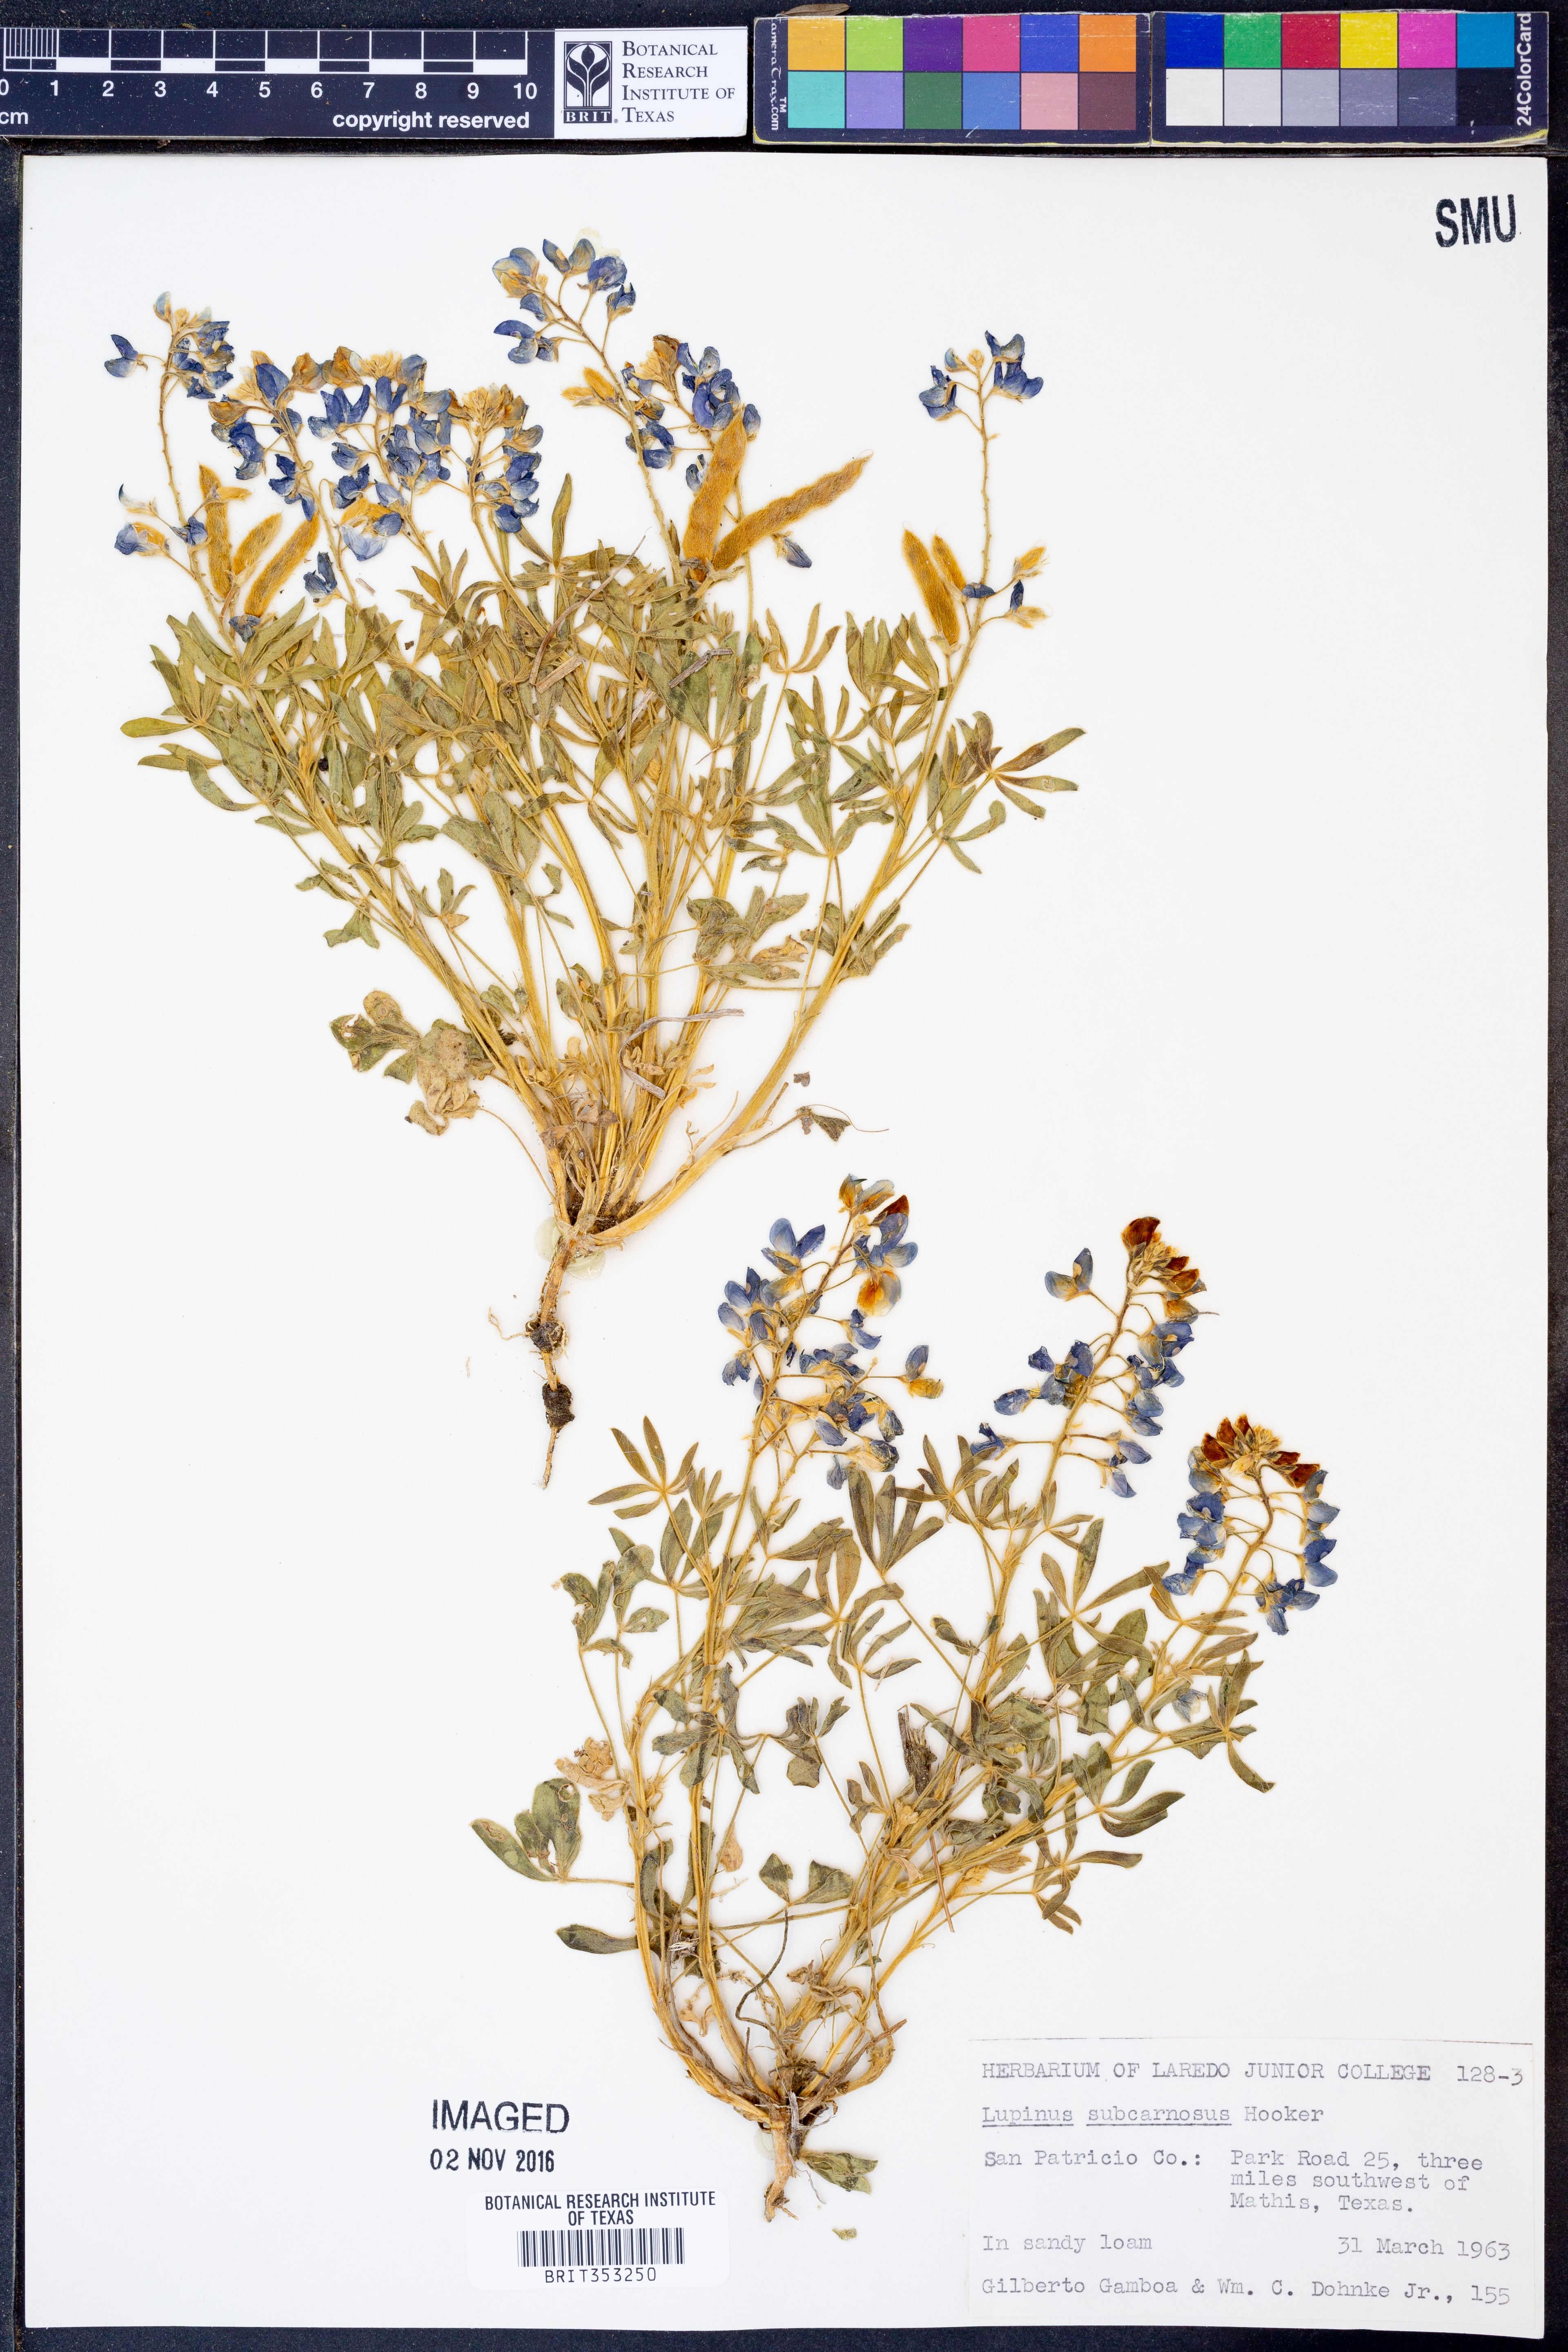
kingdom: Plantae
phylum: Tracheophyta
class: Magnoliopsida
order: Fabales
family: Fabaceae
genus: Lupinus
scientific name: Lupinus subcarnosus
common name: Texas bluebonnet
